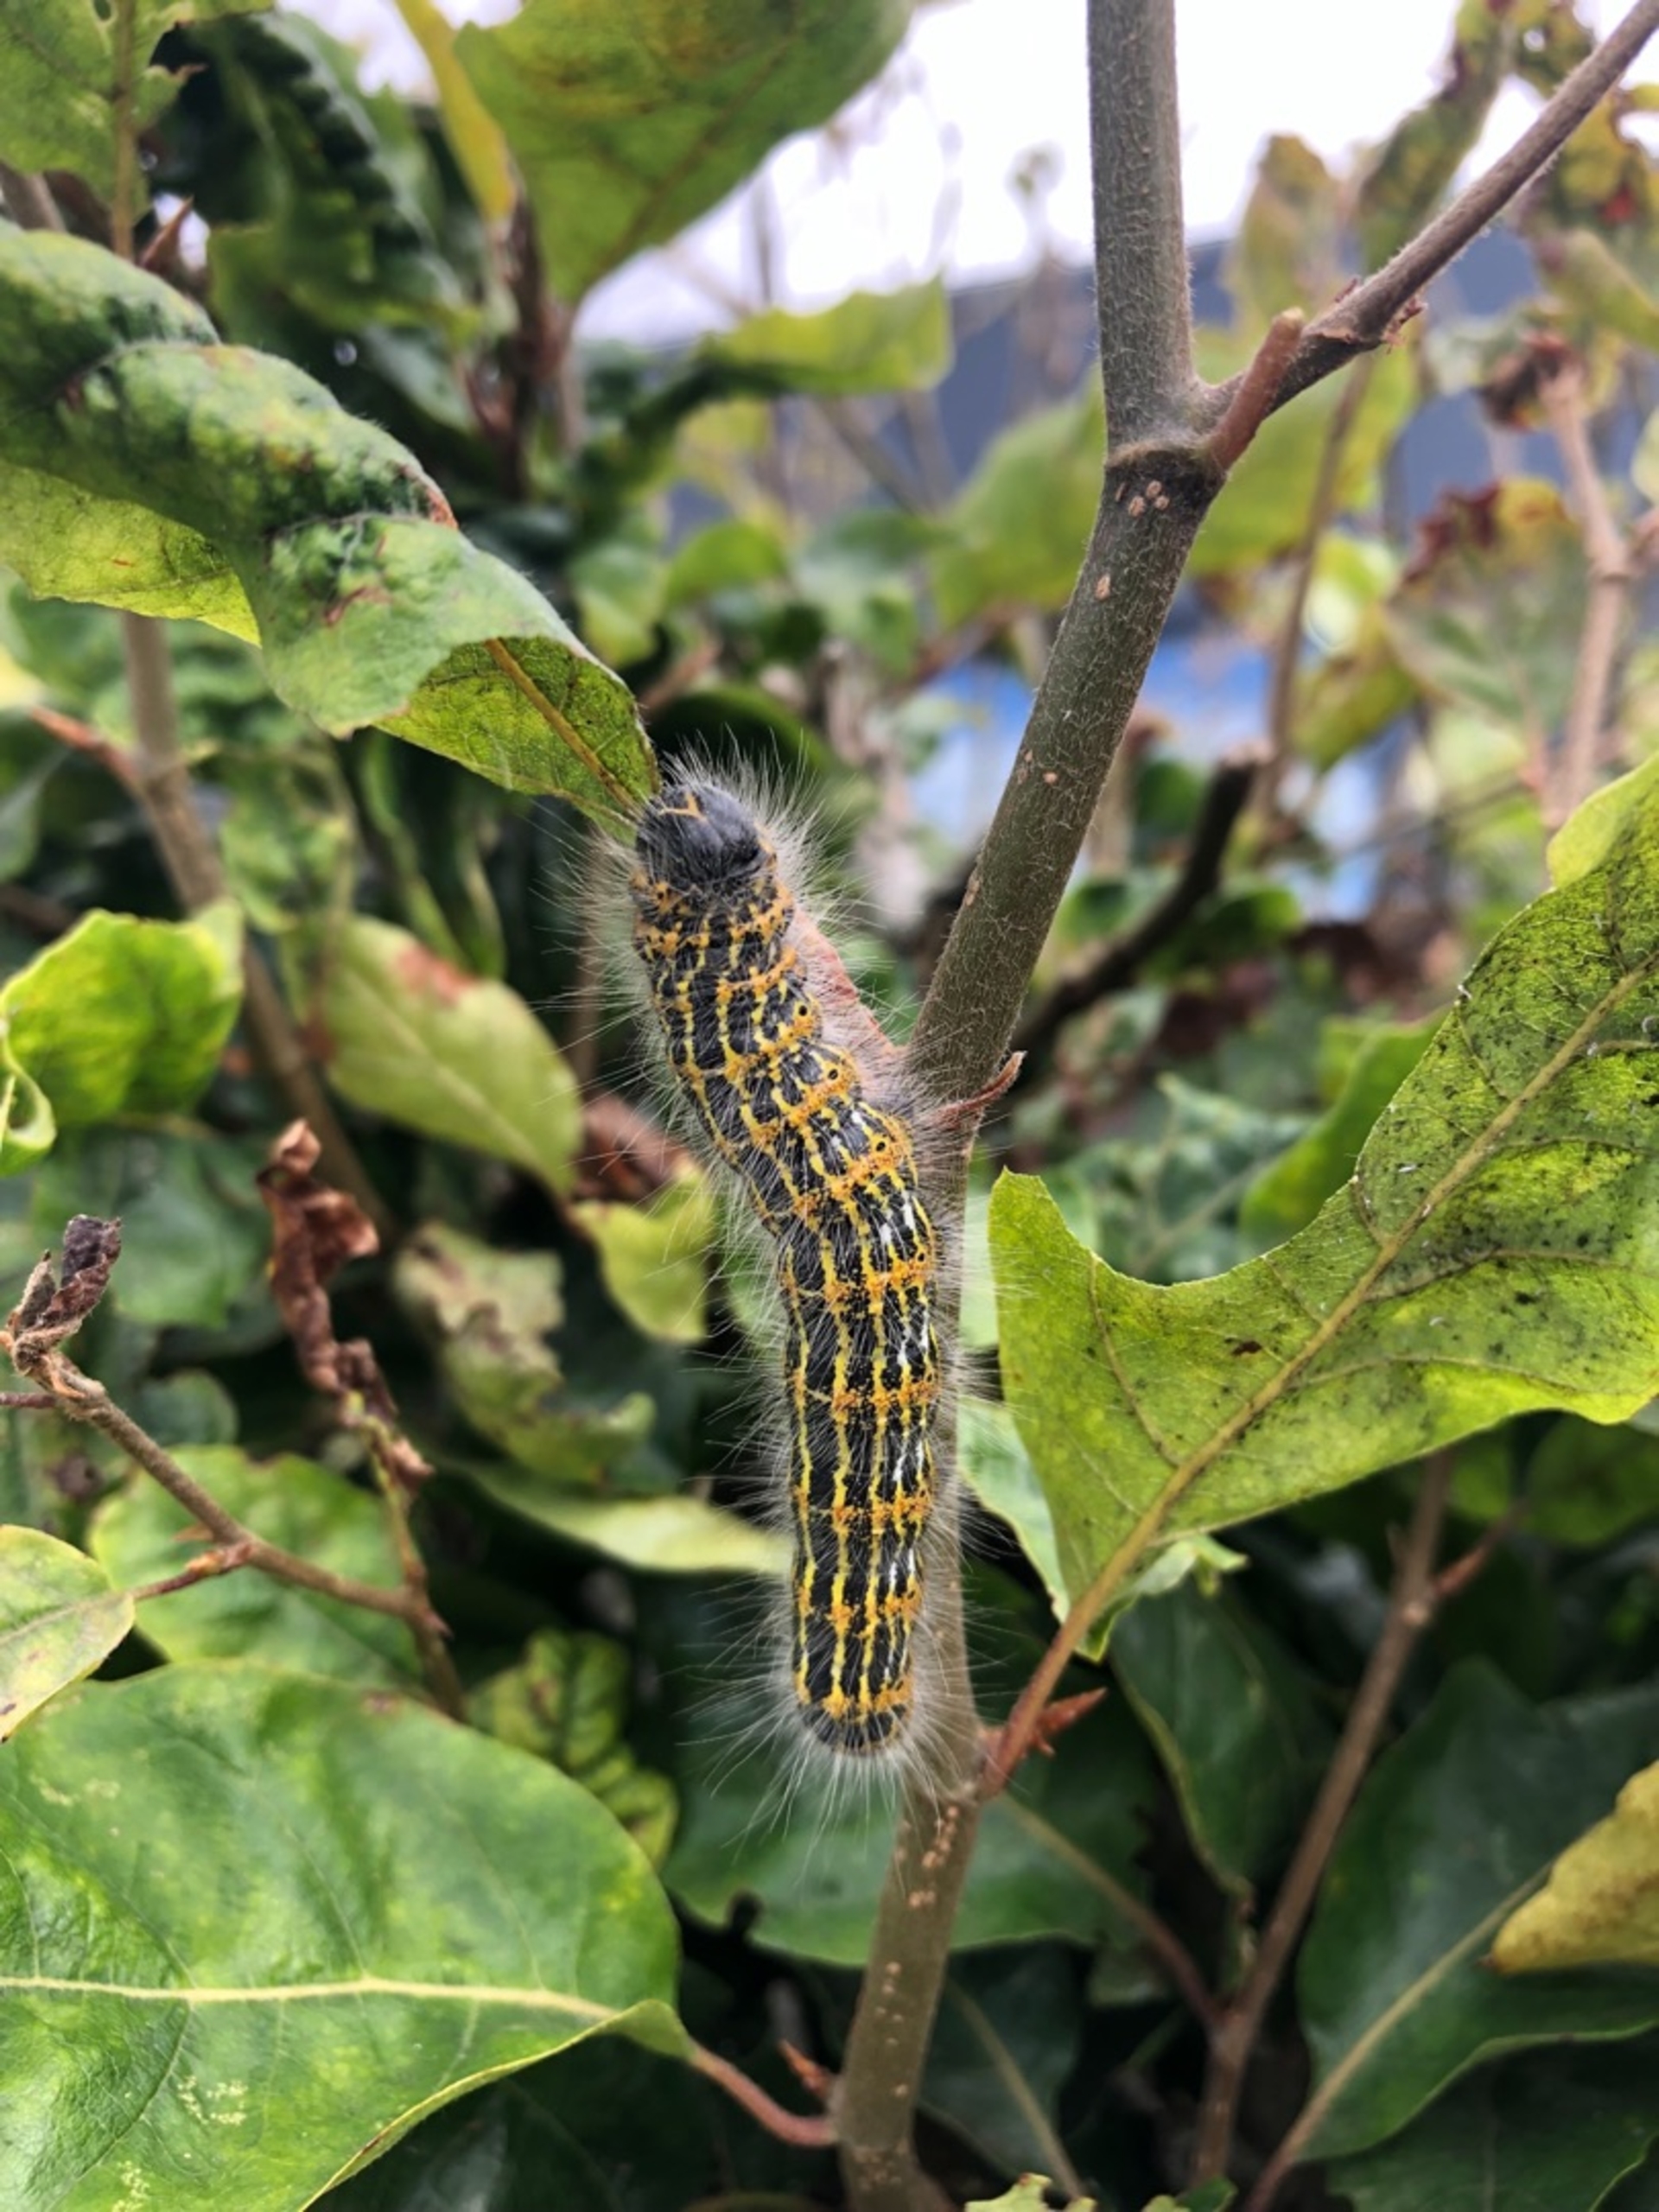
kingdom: Animalia
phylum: Arthropoda
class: Insecta
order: Lepidoptera
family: Notodontidae
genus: Phalera
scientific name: Phalera bucephala
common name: Måneplet
